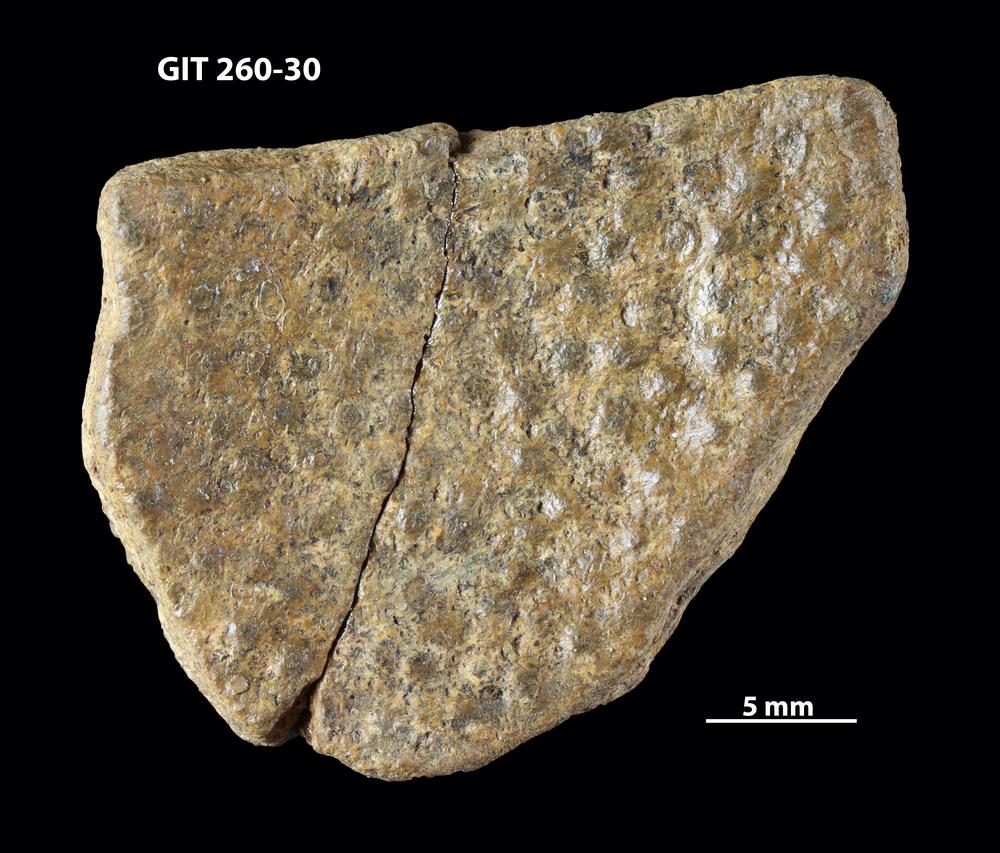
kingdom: Animalia
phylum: Chordata
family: Homostiidae
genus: Homostius
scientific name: Homostius
